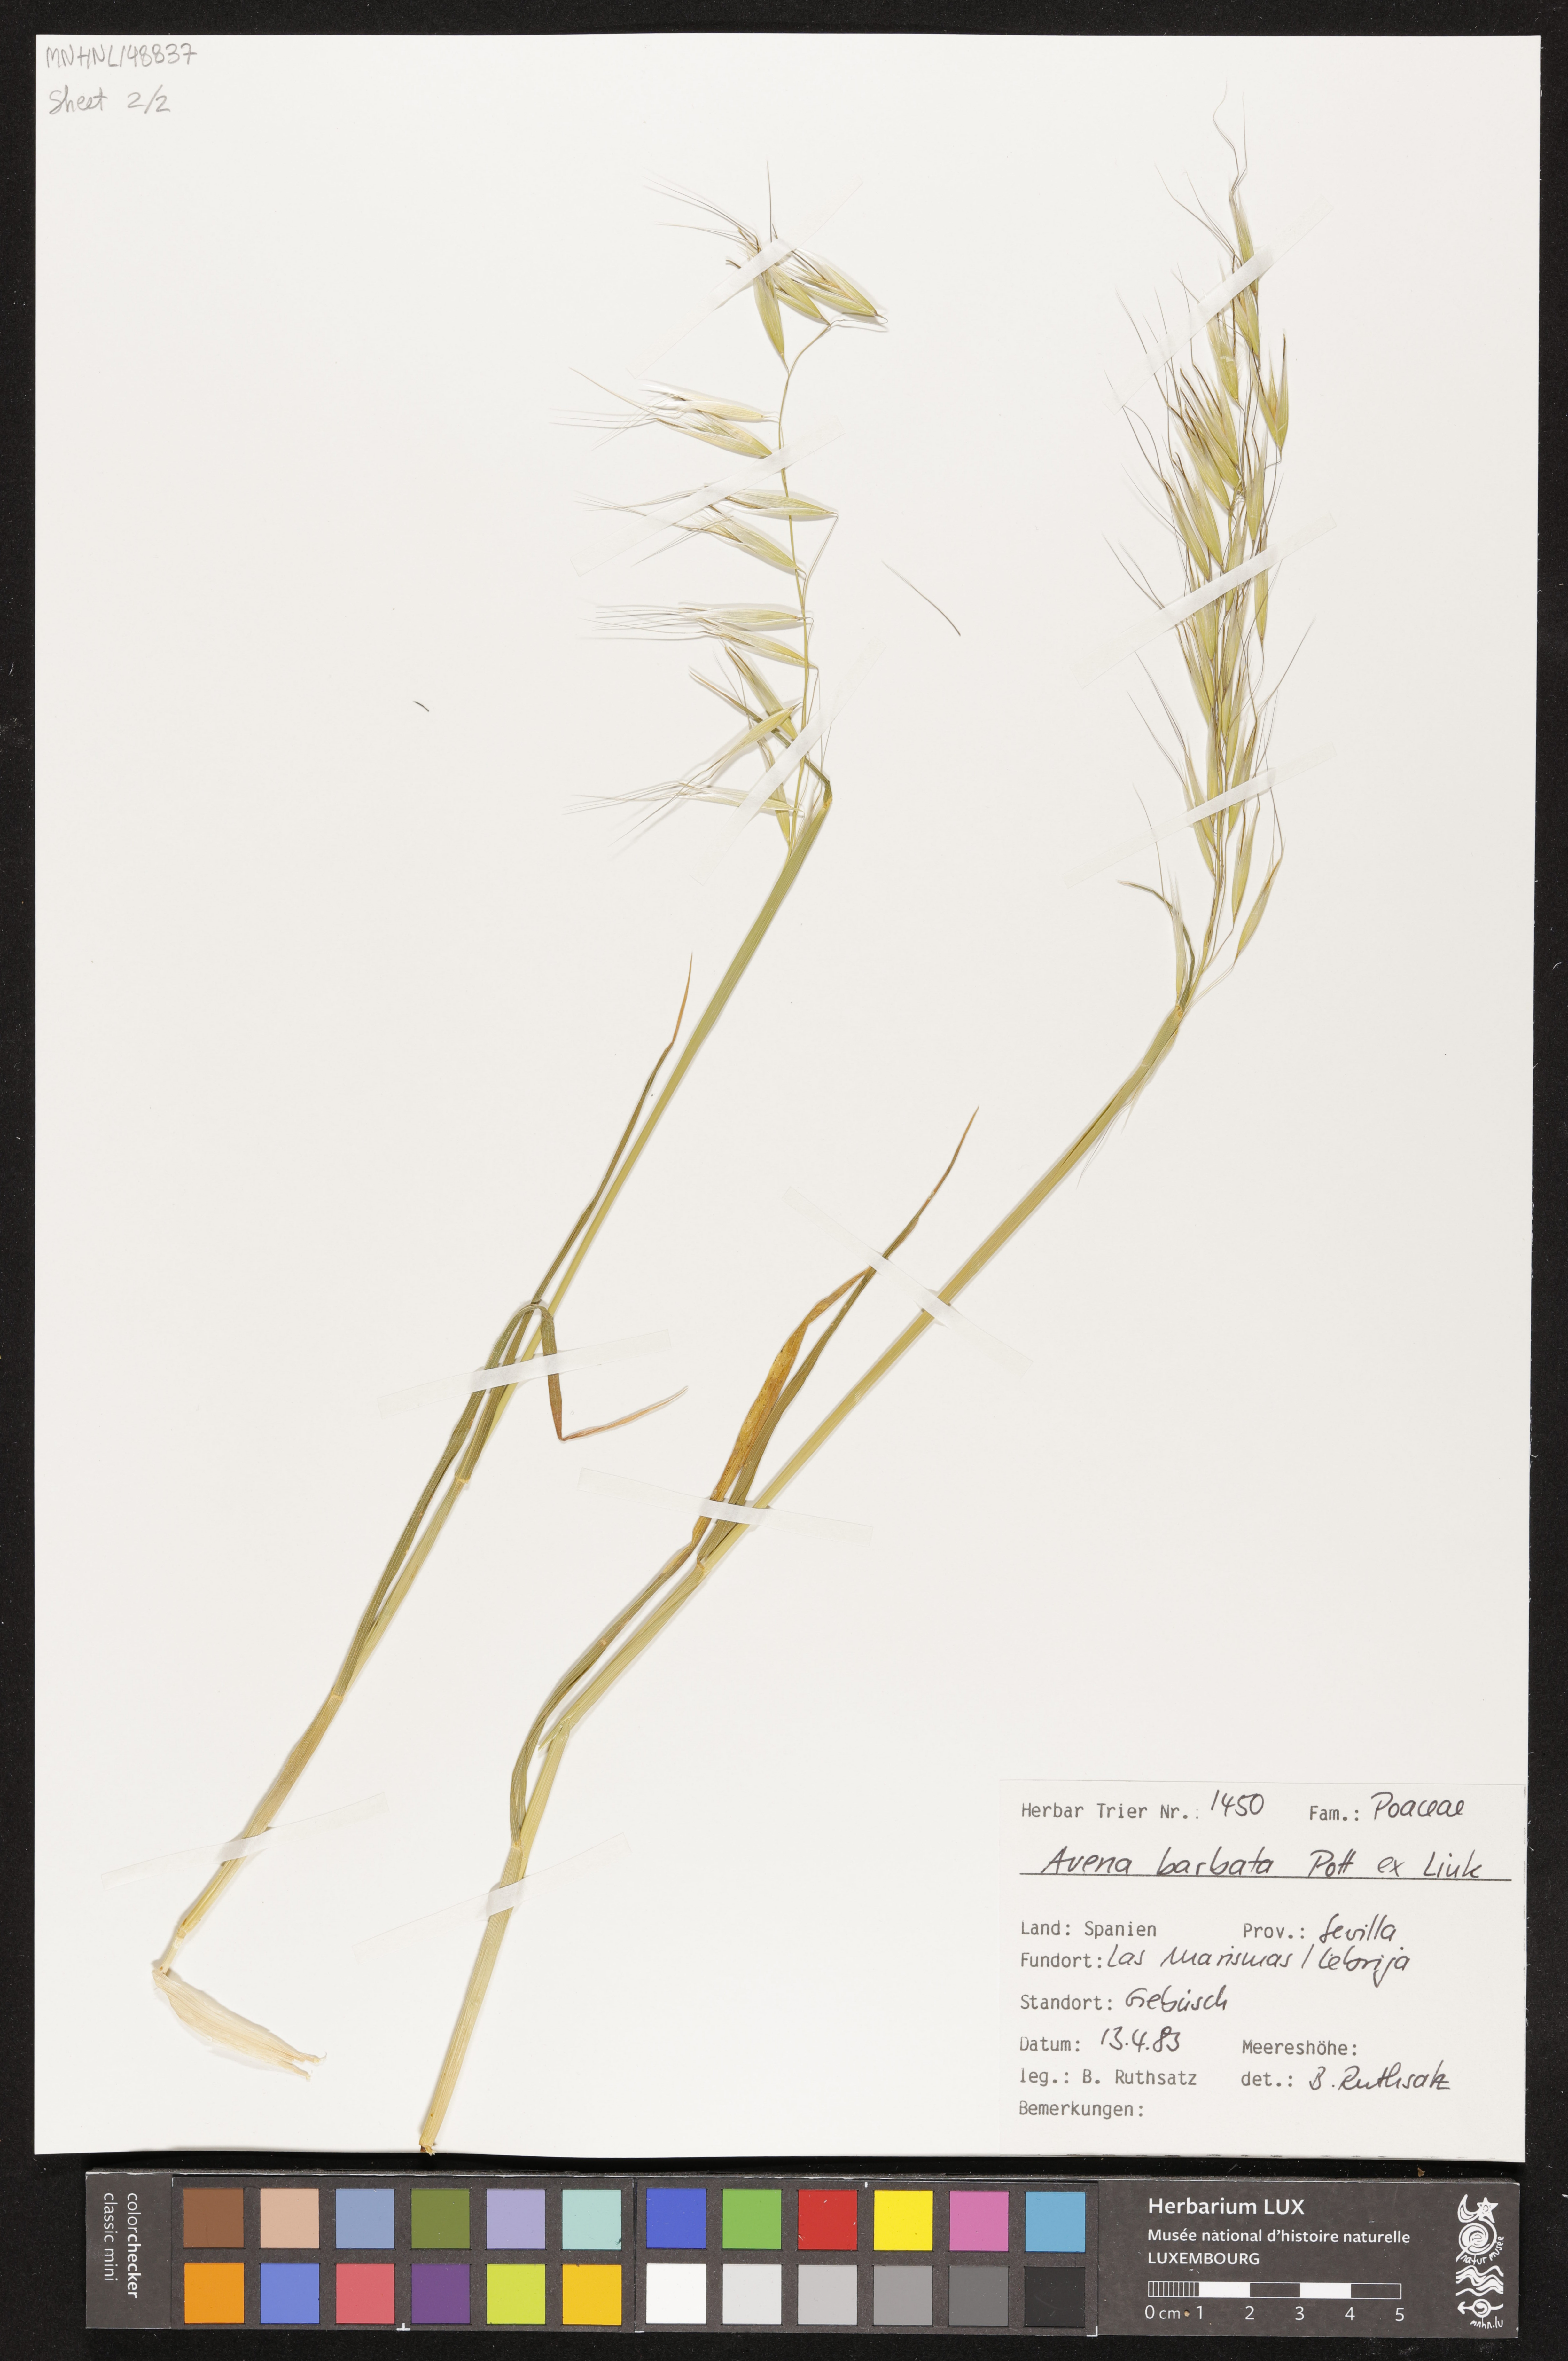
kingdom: Plantae
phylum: Tracheophyta
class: Liliopsida
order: Poales
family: Poaceae
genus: Avena
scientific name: Avena barbata
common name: Slender oat
